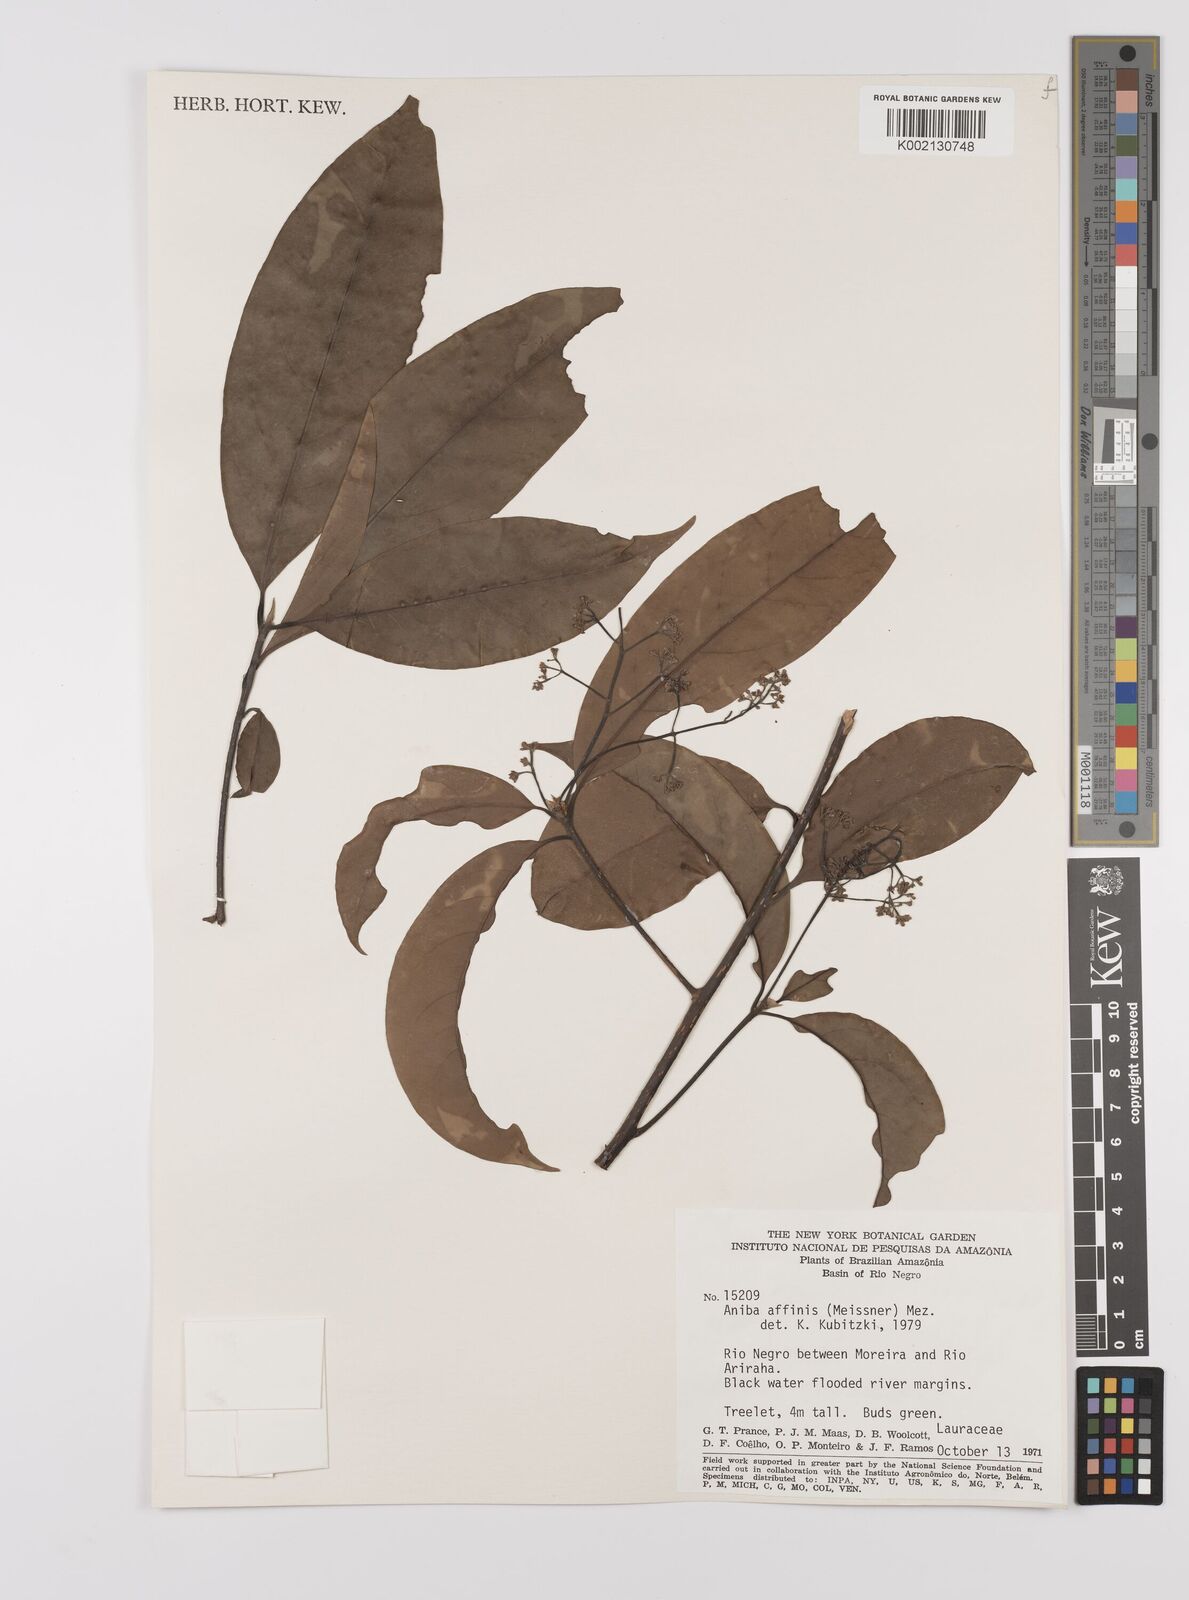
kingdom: Plantae
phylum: Tracheophyta
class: Magnoliopsida
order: Laurales
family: Lauraceae
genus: Aniba
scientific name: Aniba affinis
